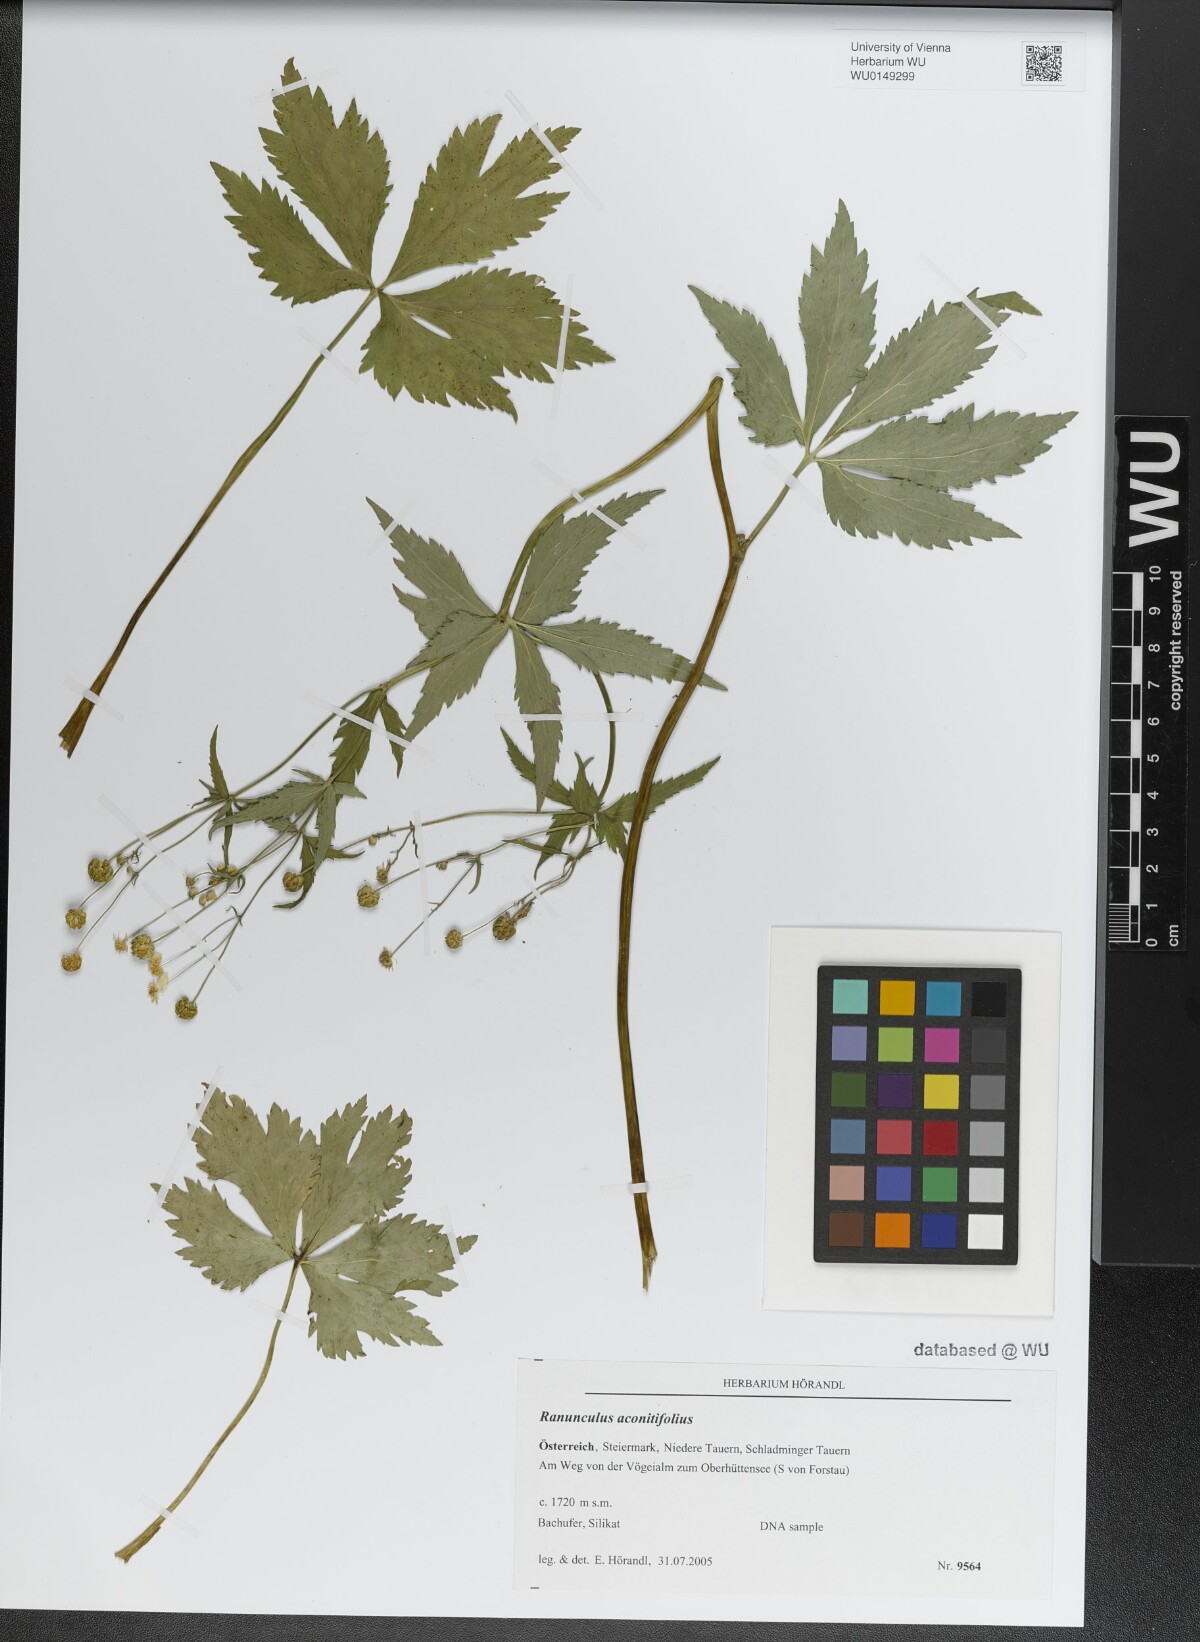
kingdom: Plantae
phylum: Tracheophyta
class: Magnoliopsida
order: Ranunculales
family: Ranunculaceae
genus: Ranunculus
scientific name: Ranunculus aconitifolius
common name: Aconite-leaved buttercup
